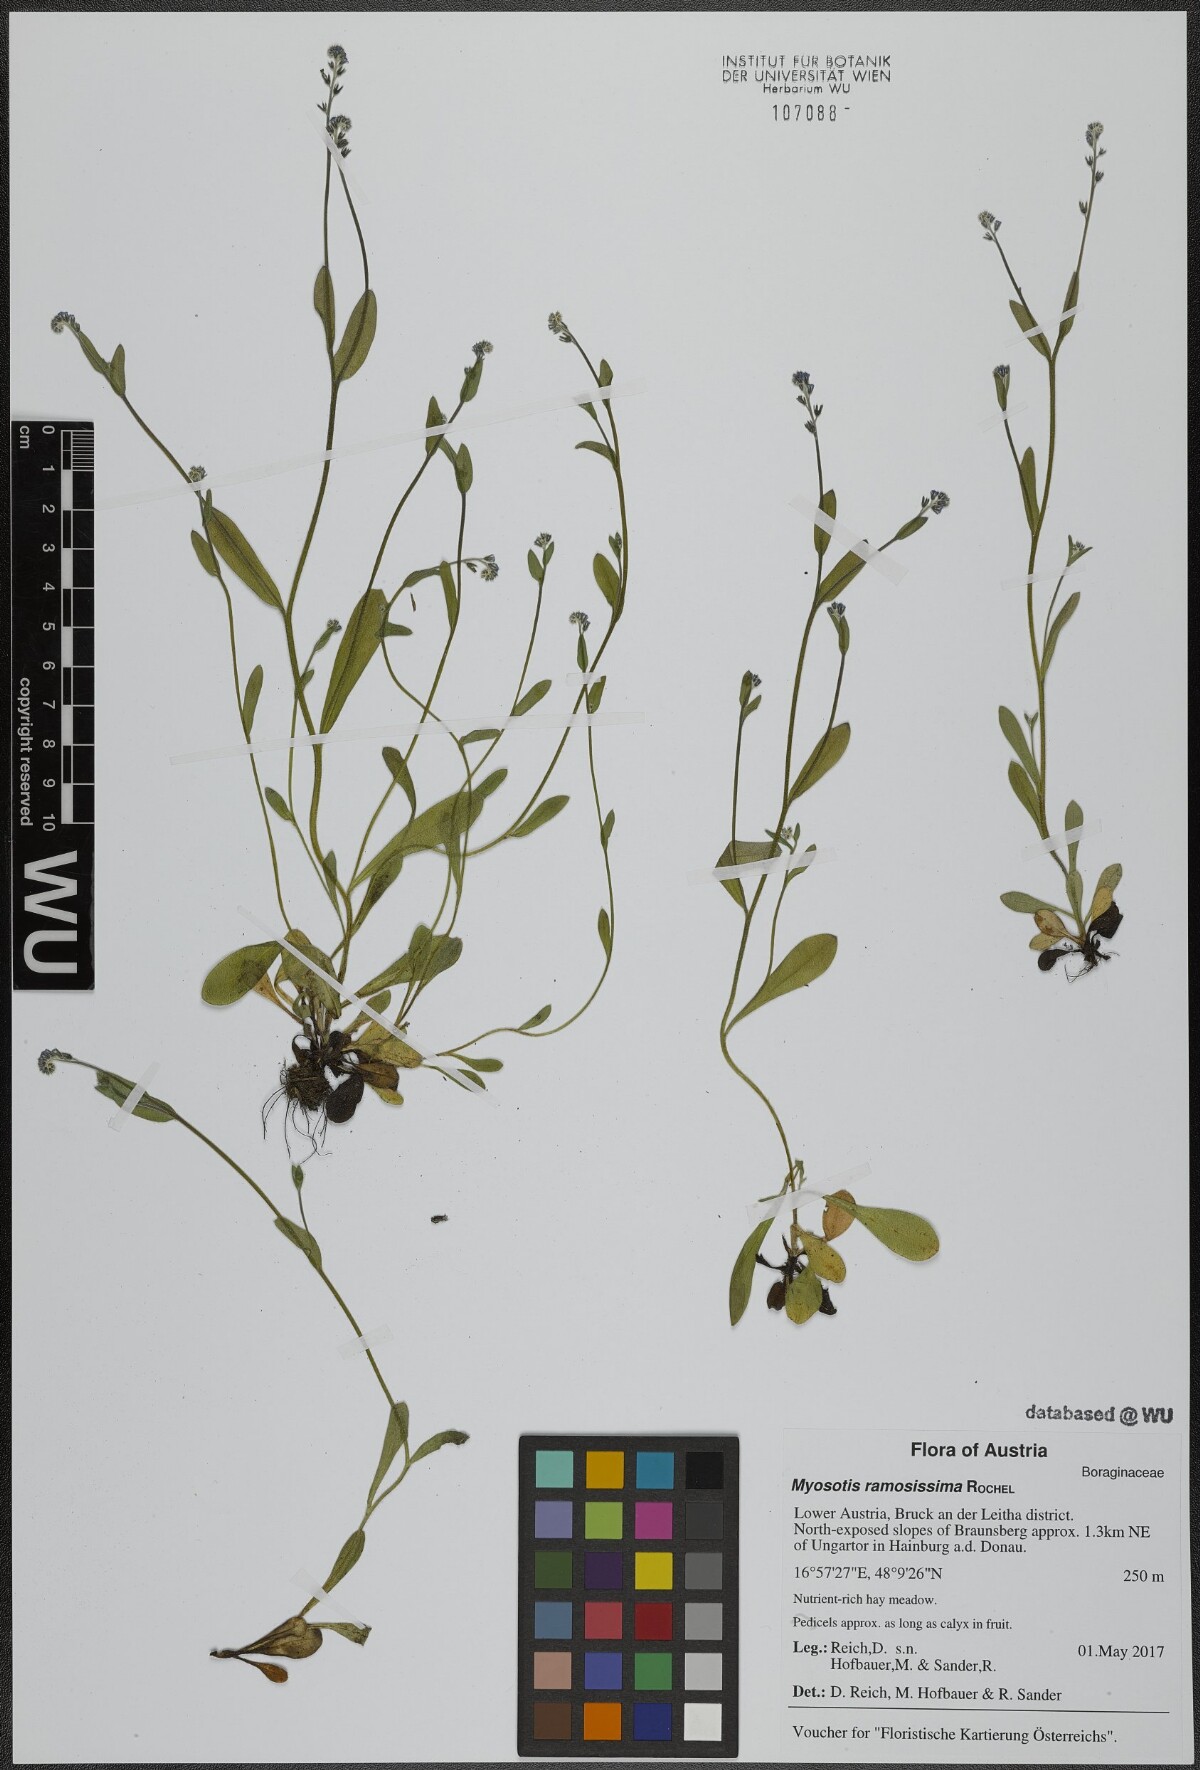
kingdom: Plantae
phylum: Tracheophyta
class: Magnoliopsida
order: Boraginales
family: Boraginaceae
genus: Myosotis
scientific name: Myosotis ramosissima
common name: Early forget-me-not
